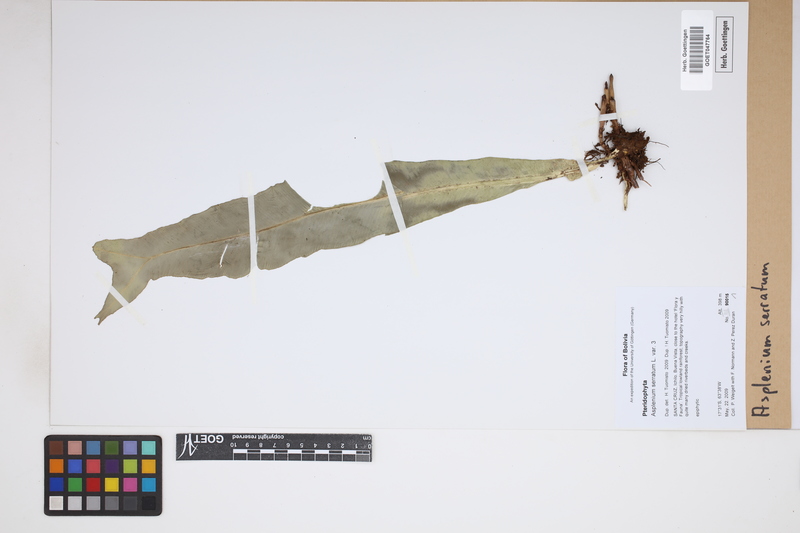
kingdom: Plantae
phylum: Tracheophyta
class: Polypodiopsida
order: Polypodiales
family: Aspleniaceae
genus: Asplenium
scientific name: Asplenium serratum
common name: Wild birdnest fern
